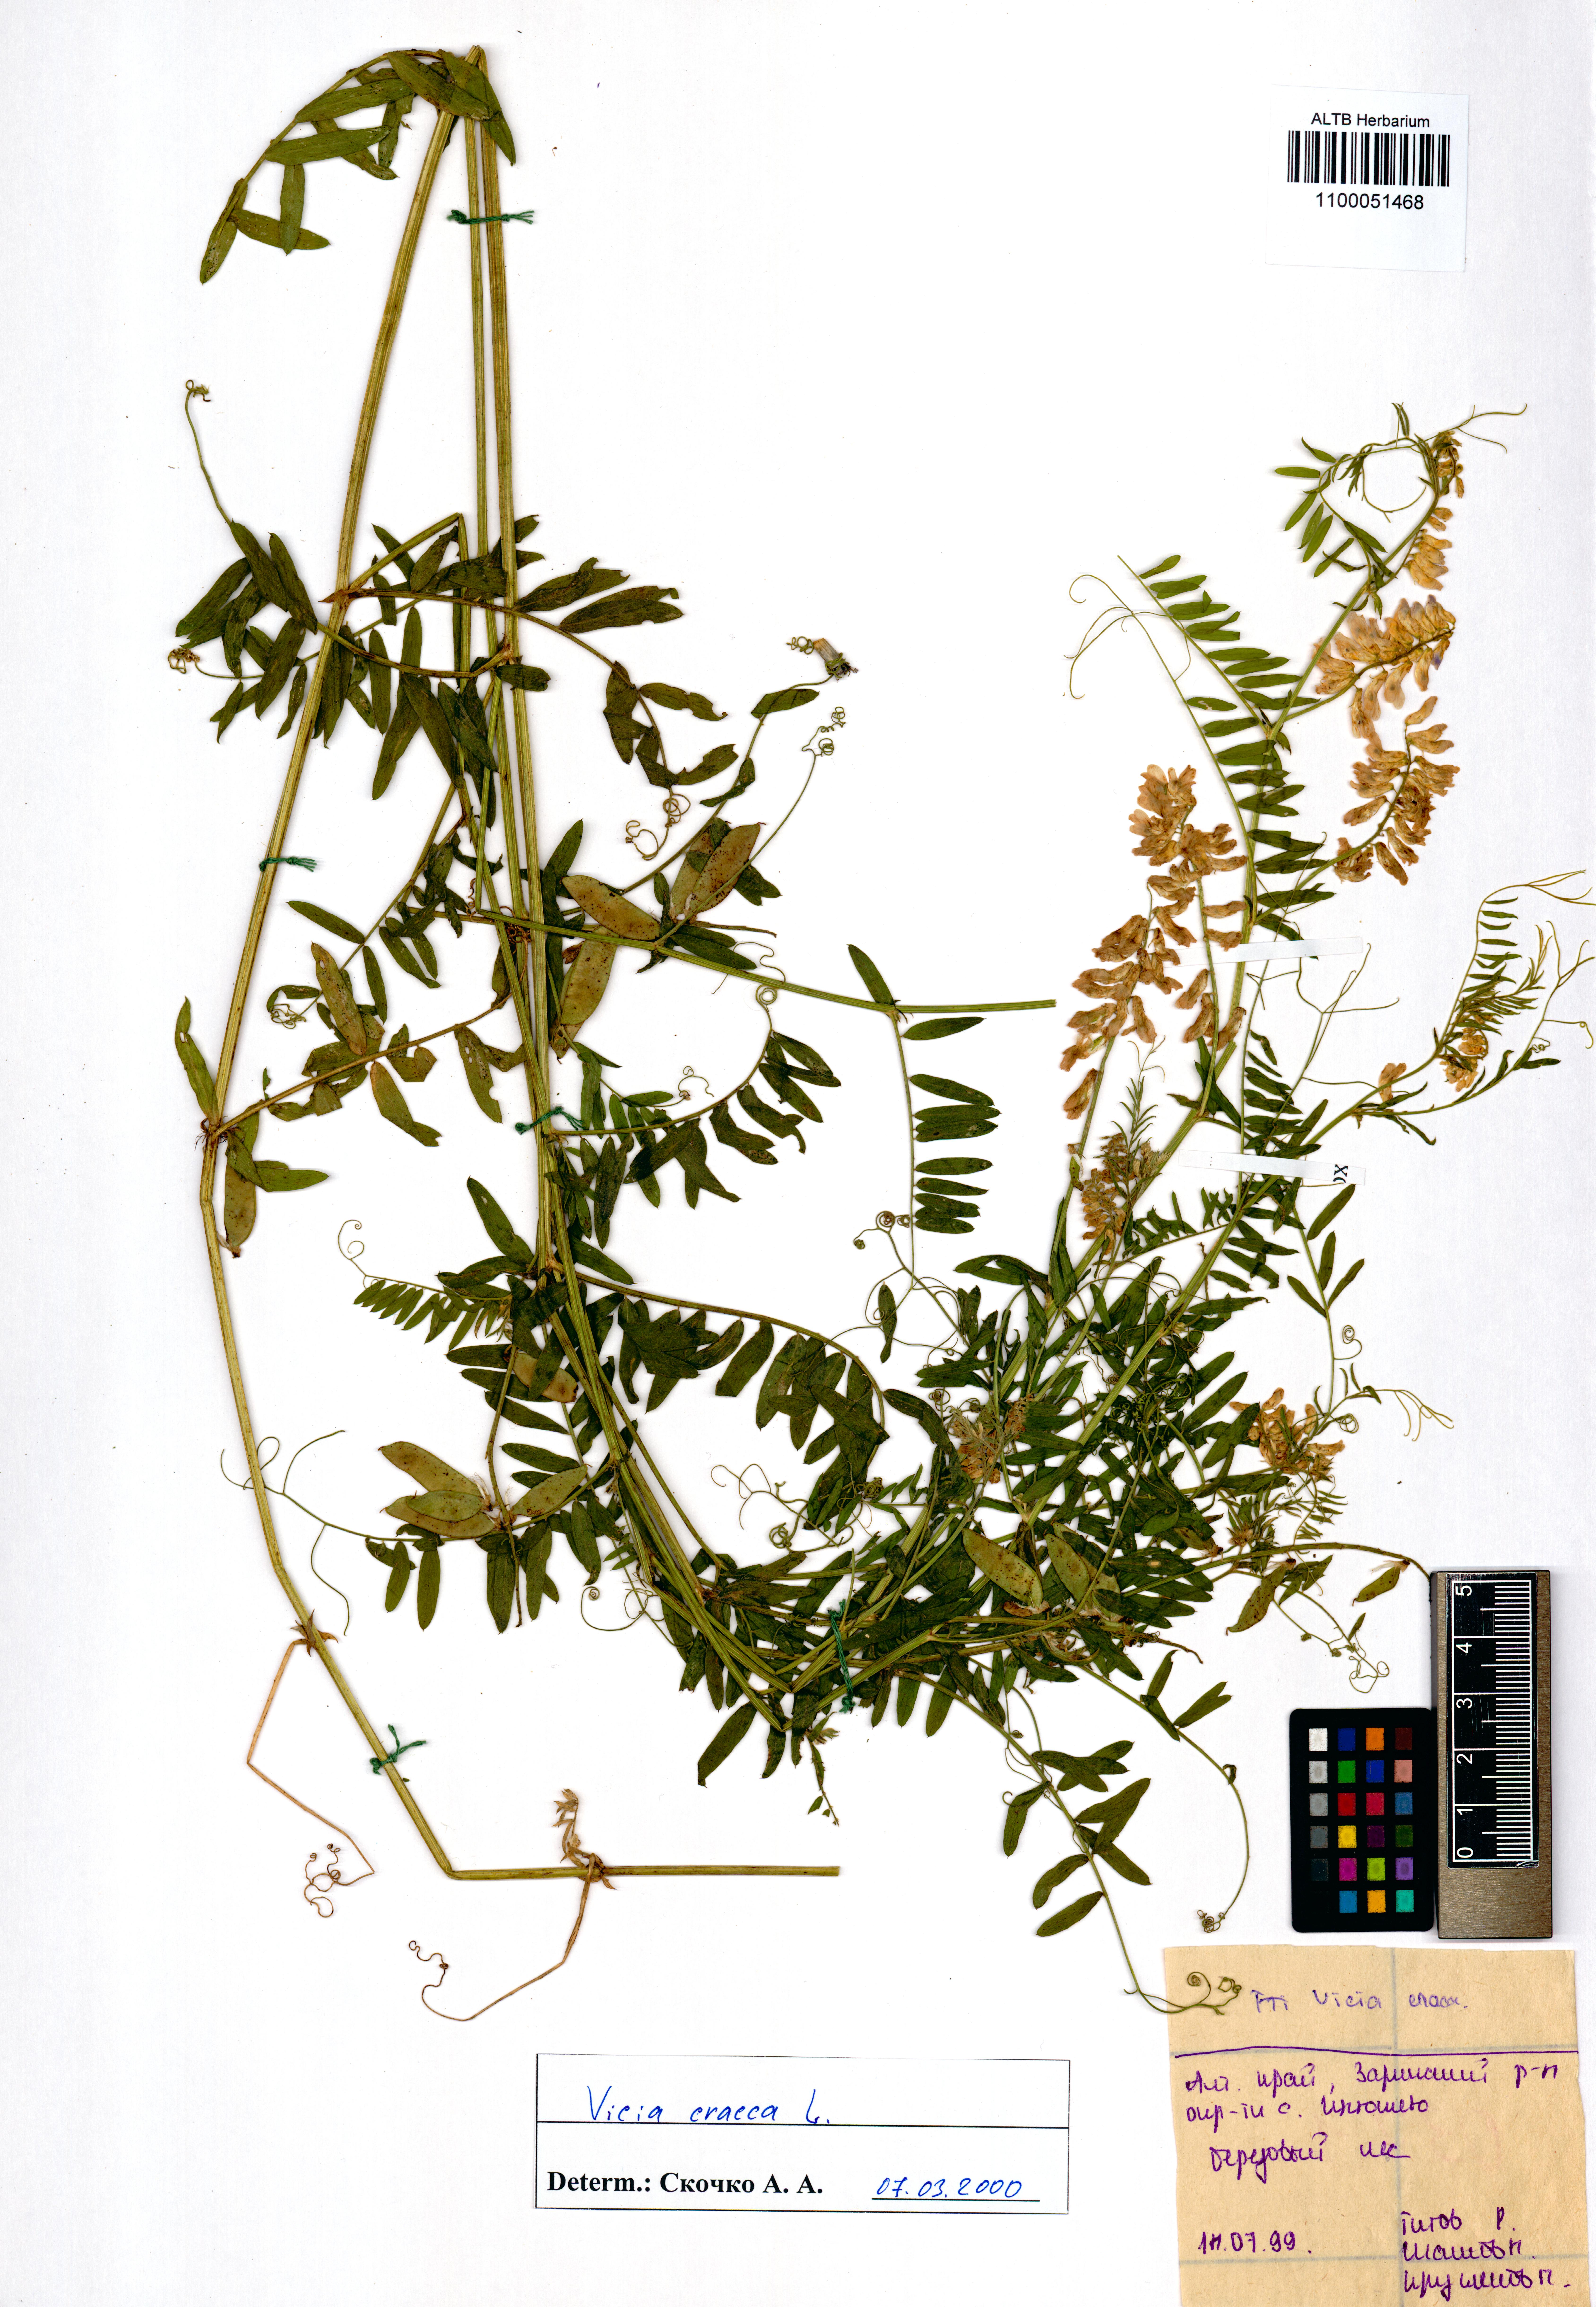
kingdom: Plantae
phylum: Tracheophyta
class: Magnoliopsida
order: Fabales
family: Fabaceae
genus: Vicia
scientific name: Vicia cracca
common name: Bird vetch
